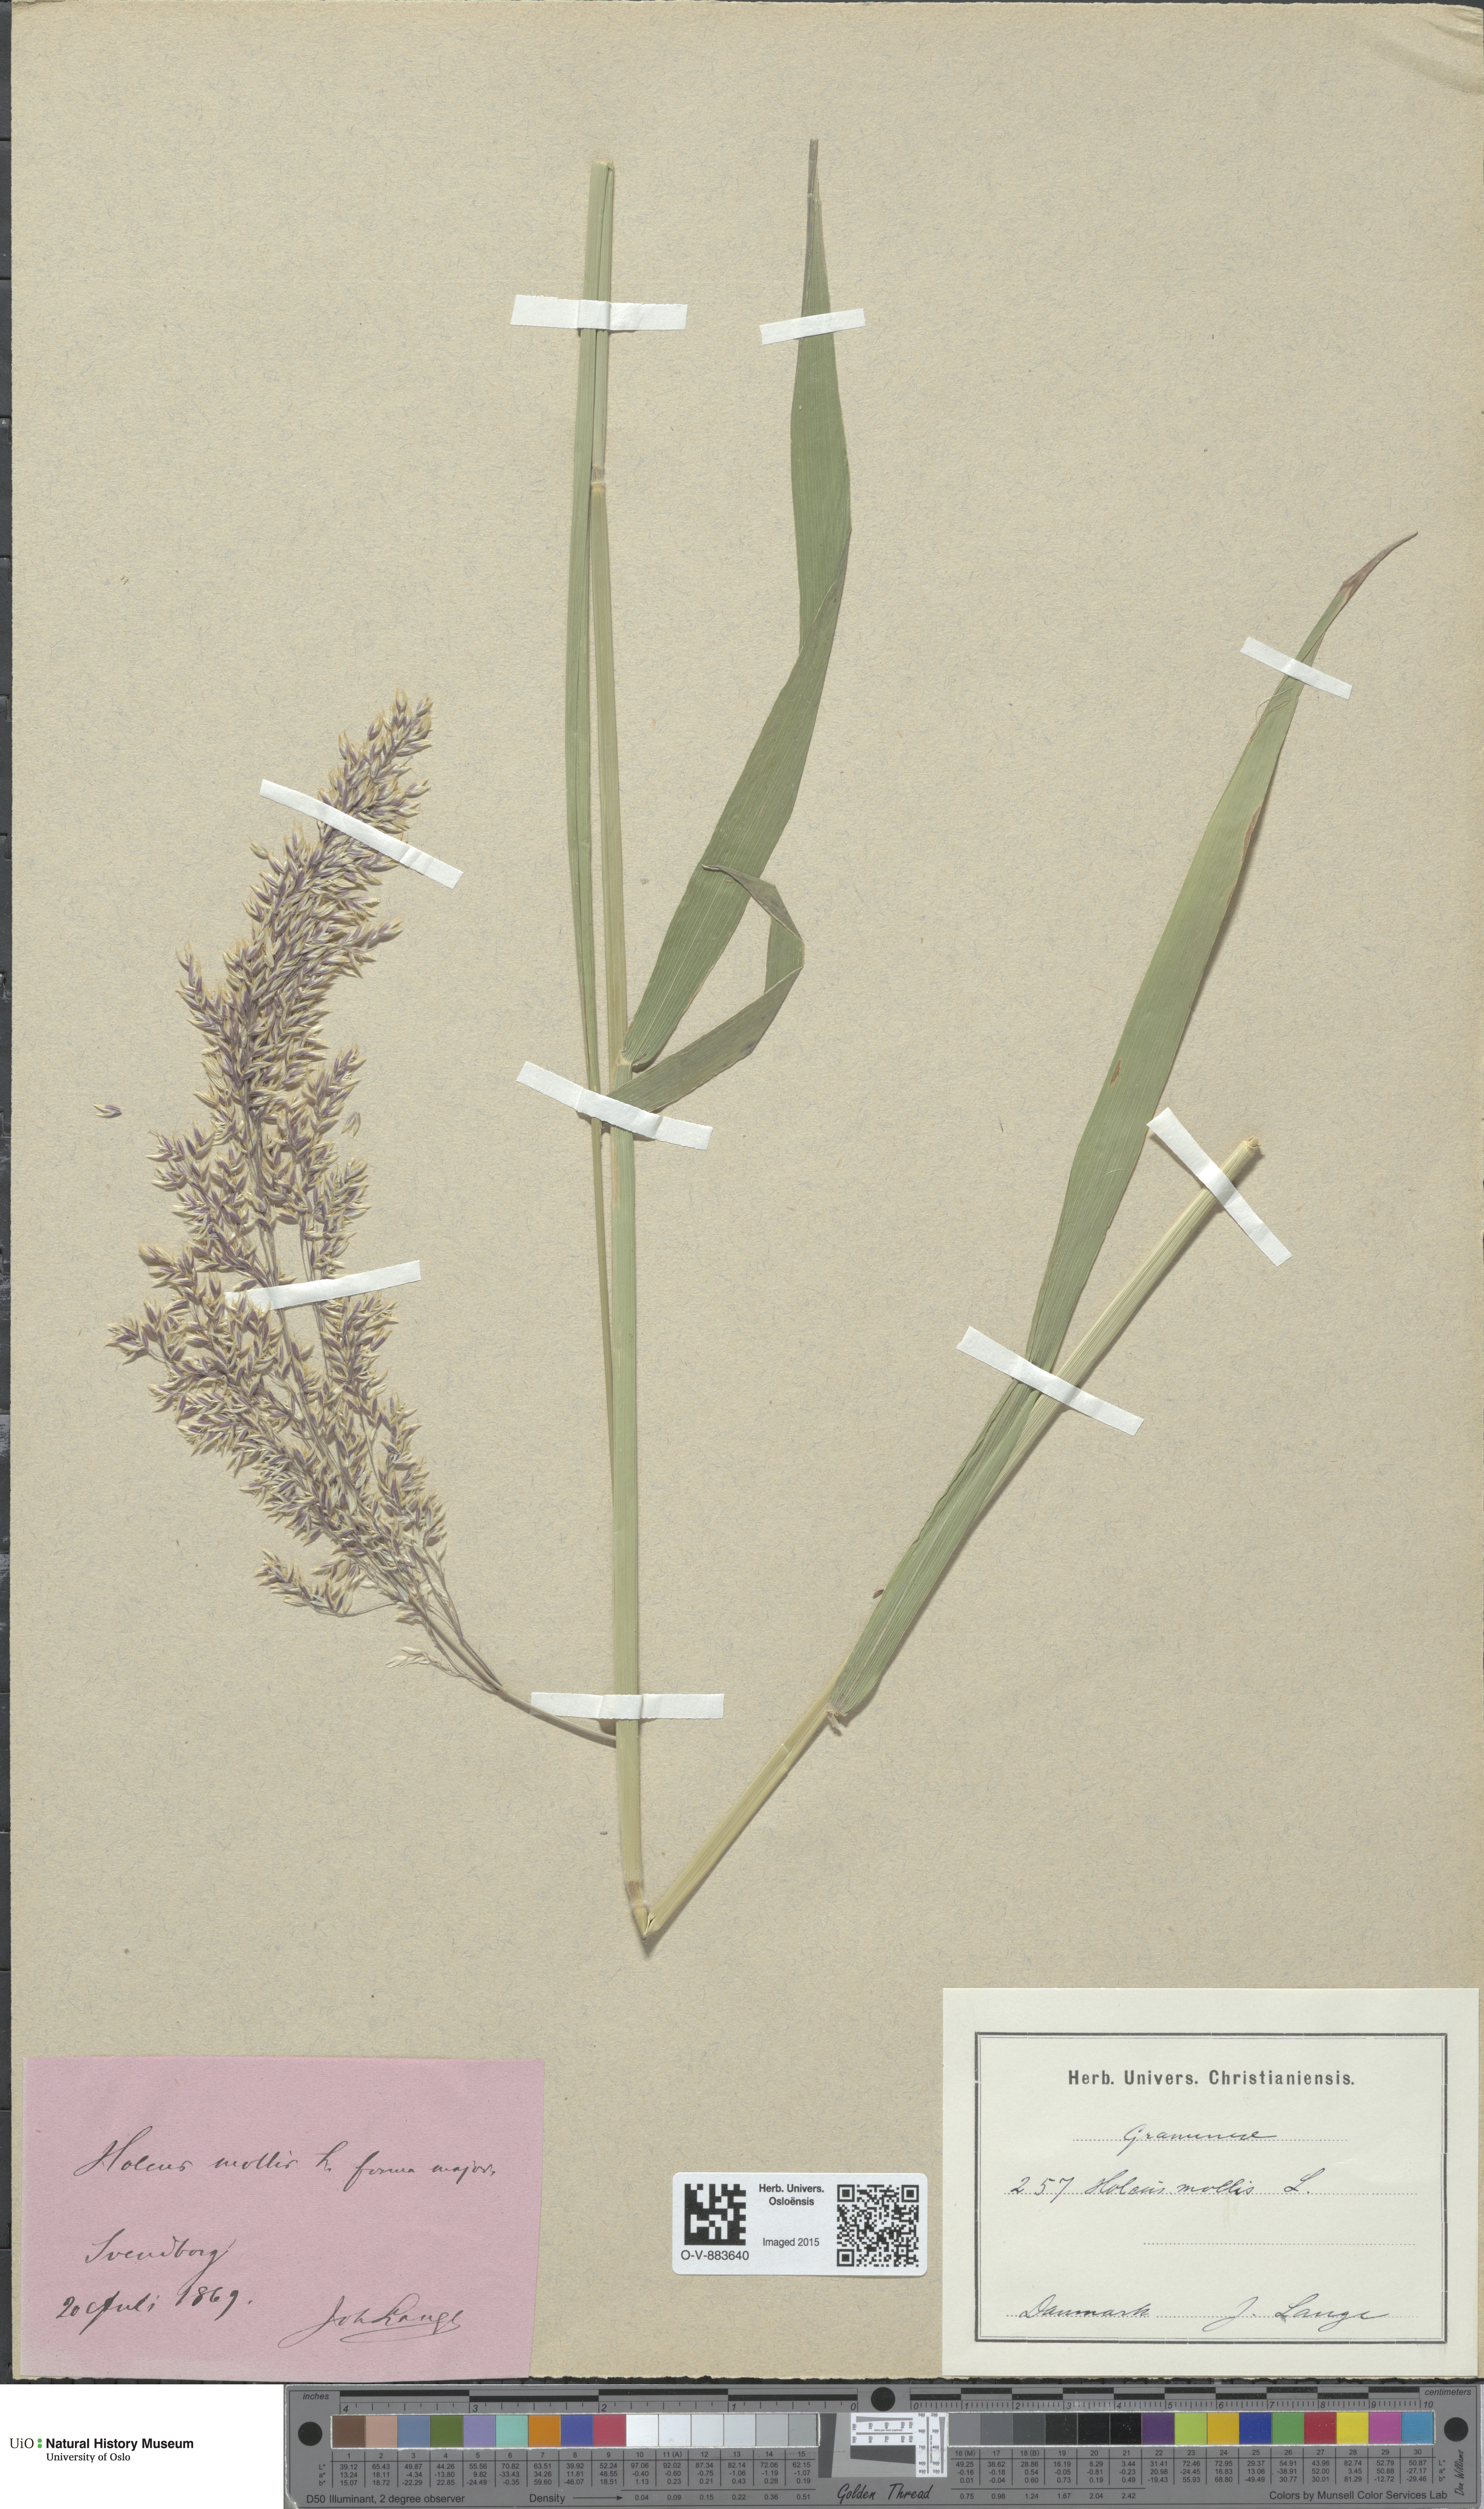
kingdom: Plantae
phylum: Tracheophyta
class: Liliopsida
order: Poales
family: Poaceae
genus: Holcus
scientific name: Holcus mollis
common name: Creeping velvetgrass
